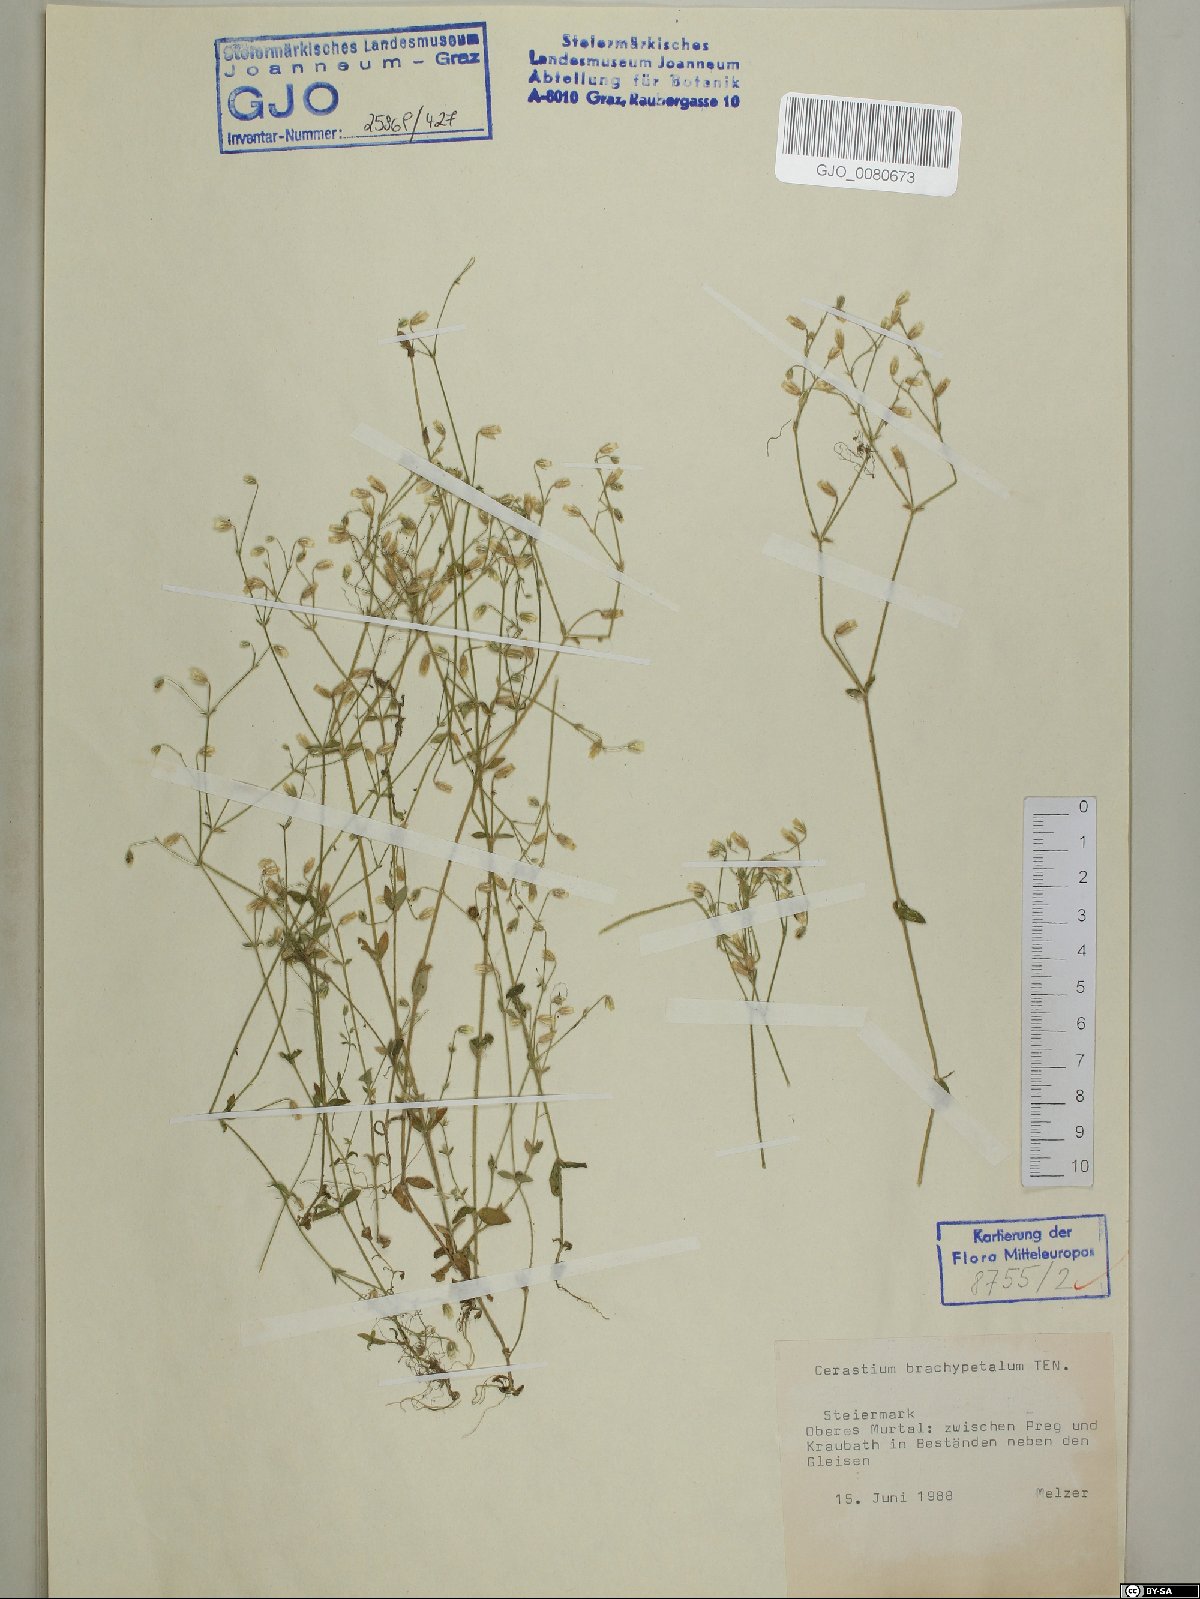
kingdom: Plantae
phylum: Tracheophyta
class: Magnoliopsida
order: Caryophyllales
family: Caryophyllaceae
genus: Cerastium
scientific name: Cerastium brachypetalum
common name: Grey mouse-ear
